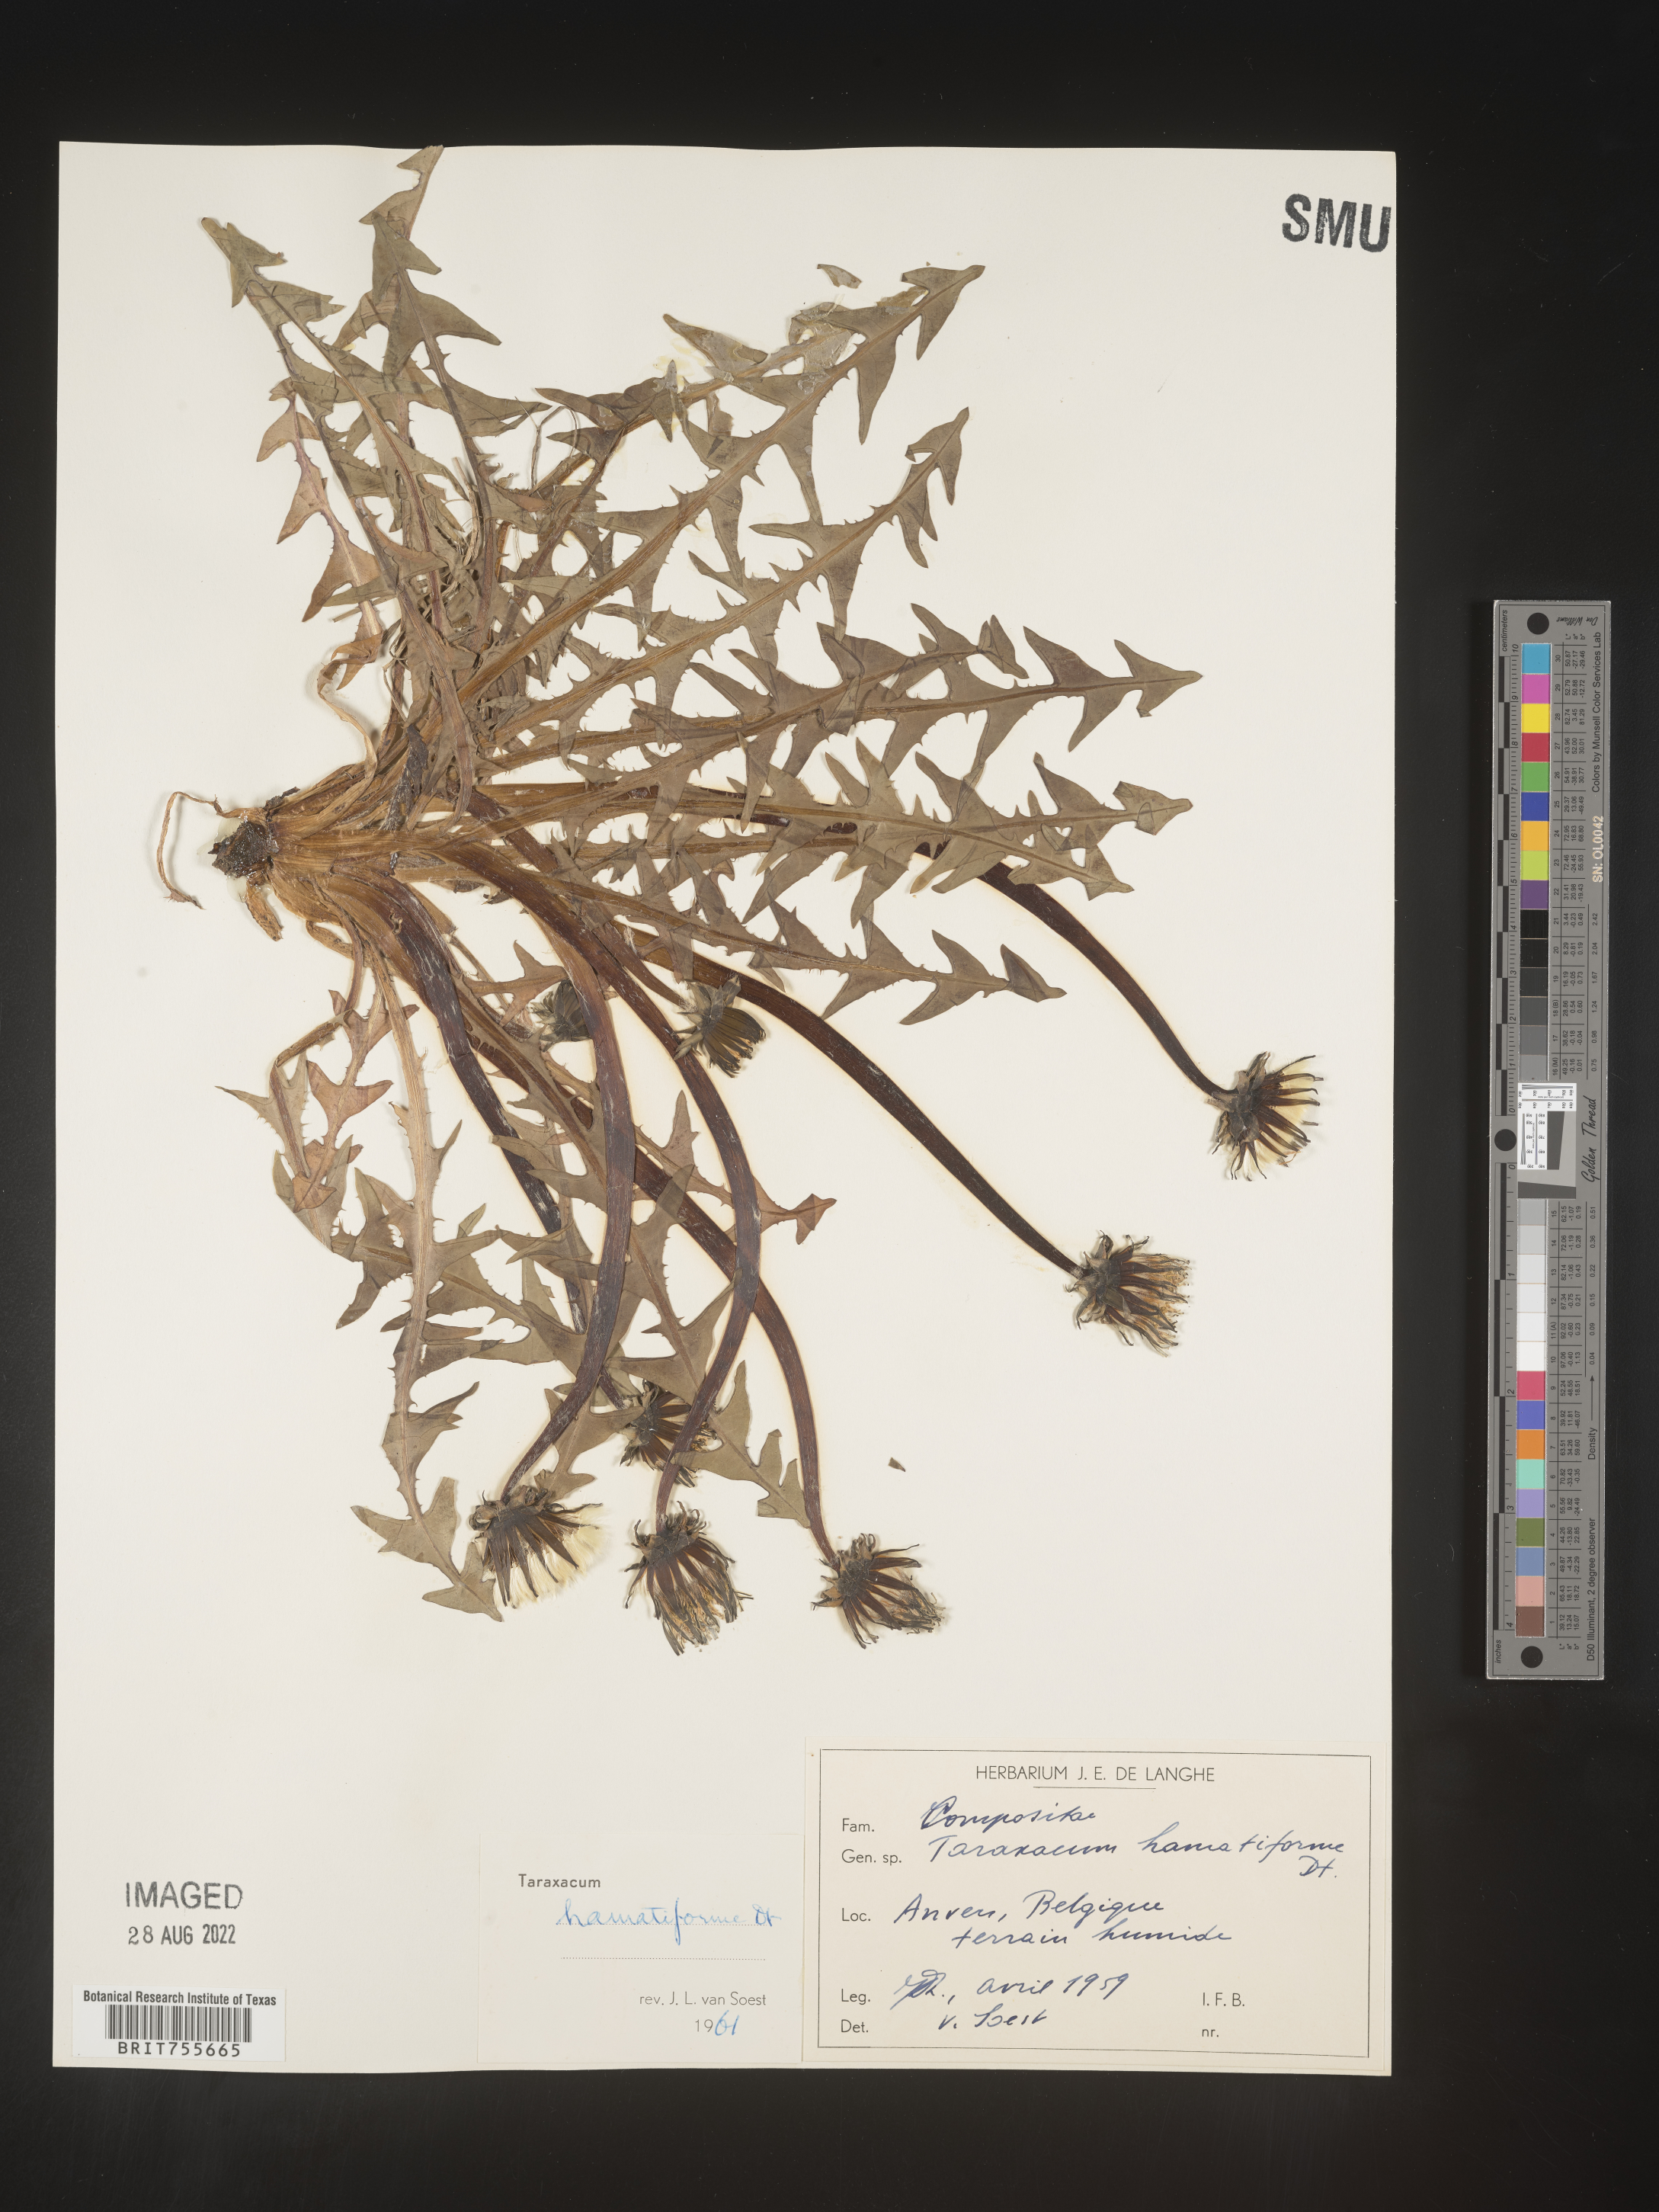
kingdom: Plantae
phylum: Tracheophyta
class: Magnoliopsida
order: Asterales
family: Asteraceae
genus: Taraxacum
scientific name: Taraxacum
